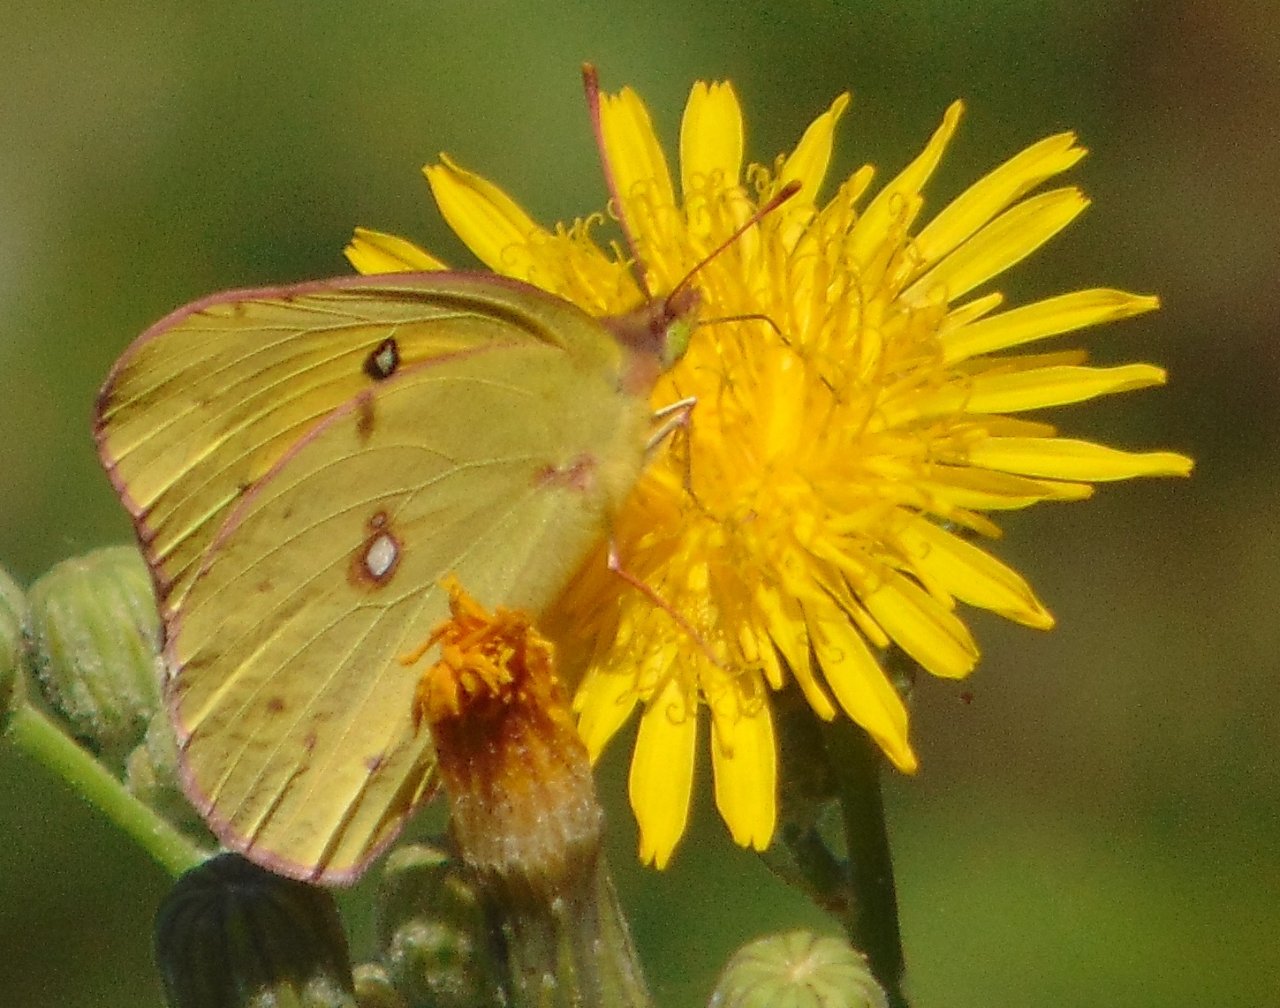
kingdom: Animalia
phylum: Arthropoda
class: Insecta
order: Lepidoptera
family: Pieridae
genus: Colias
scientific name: Colias eurytheme
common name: Orange Sulphur
